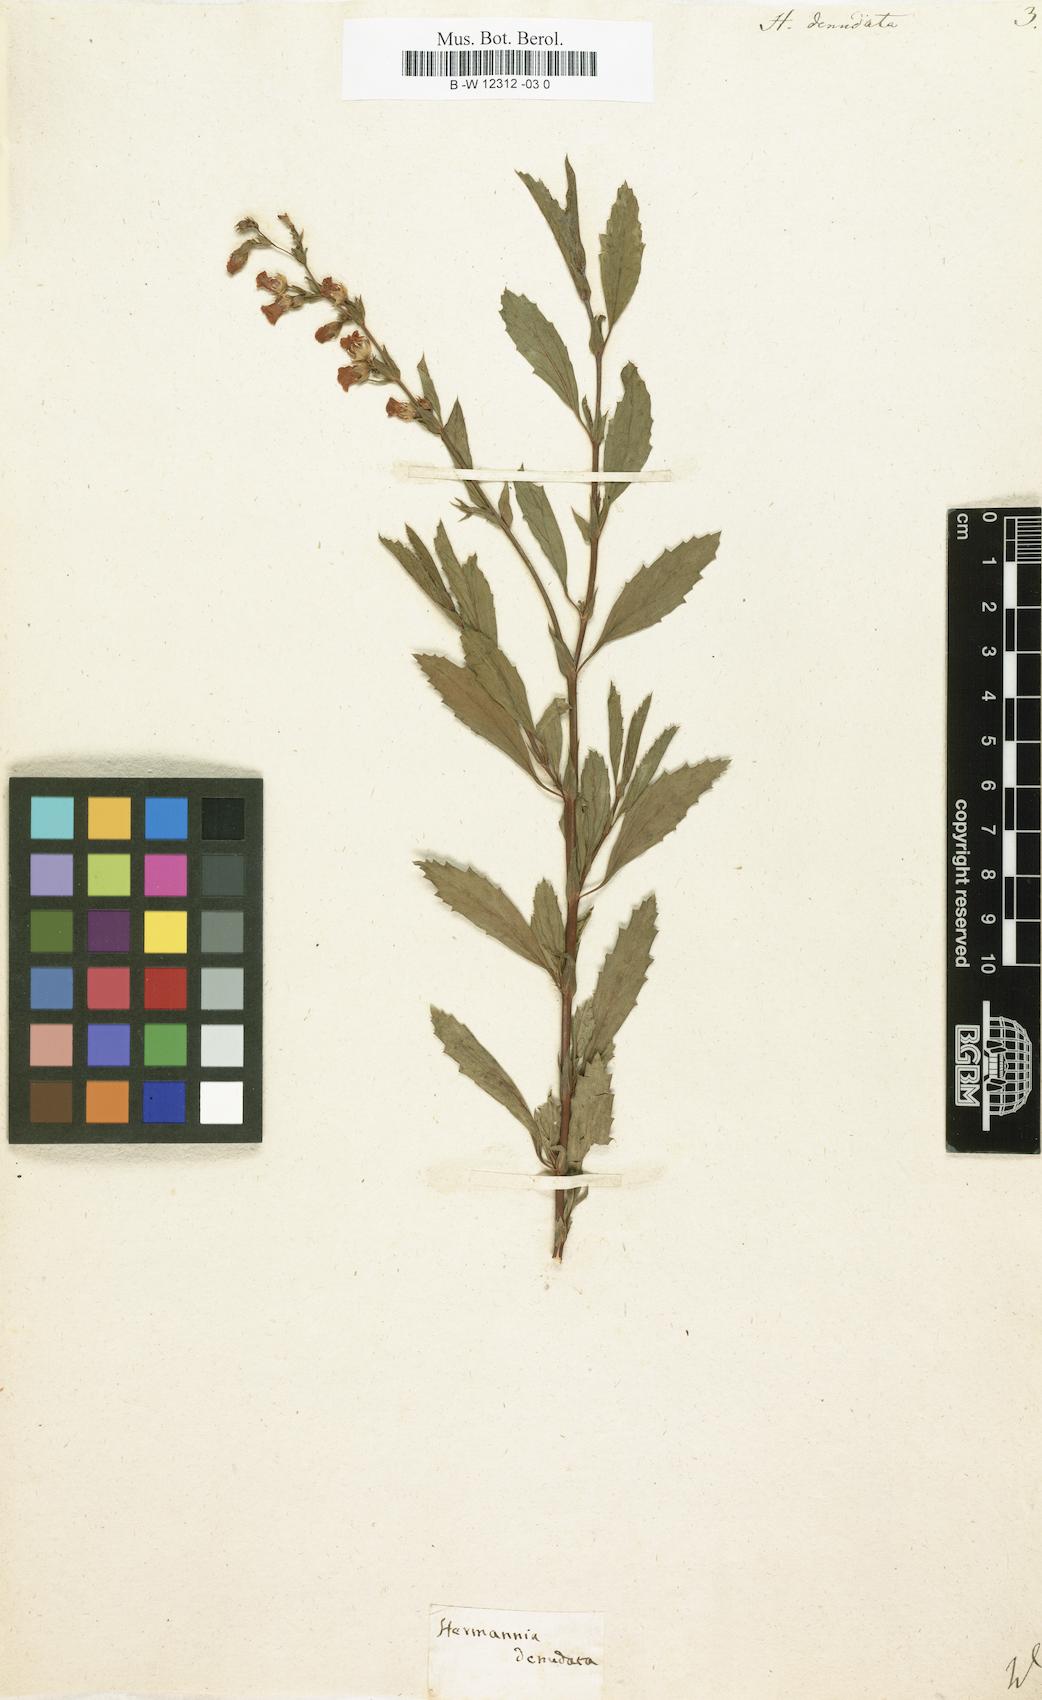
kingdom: Plantae
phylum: Tracheophyta
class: Magnoliopsida
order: Malvales
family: Malvaceae
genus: Hermannia
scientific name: Hermannia denudata
